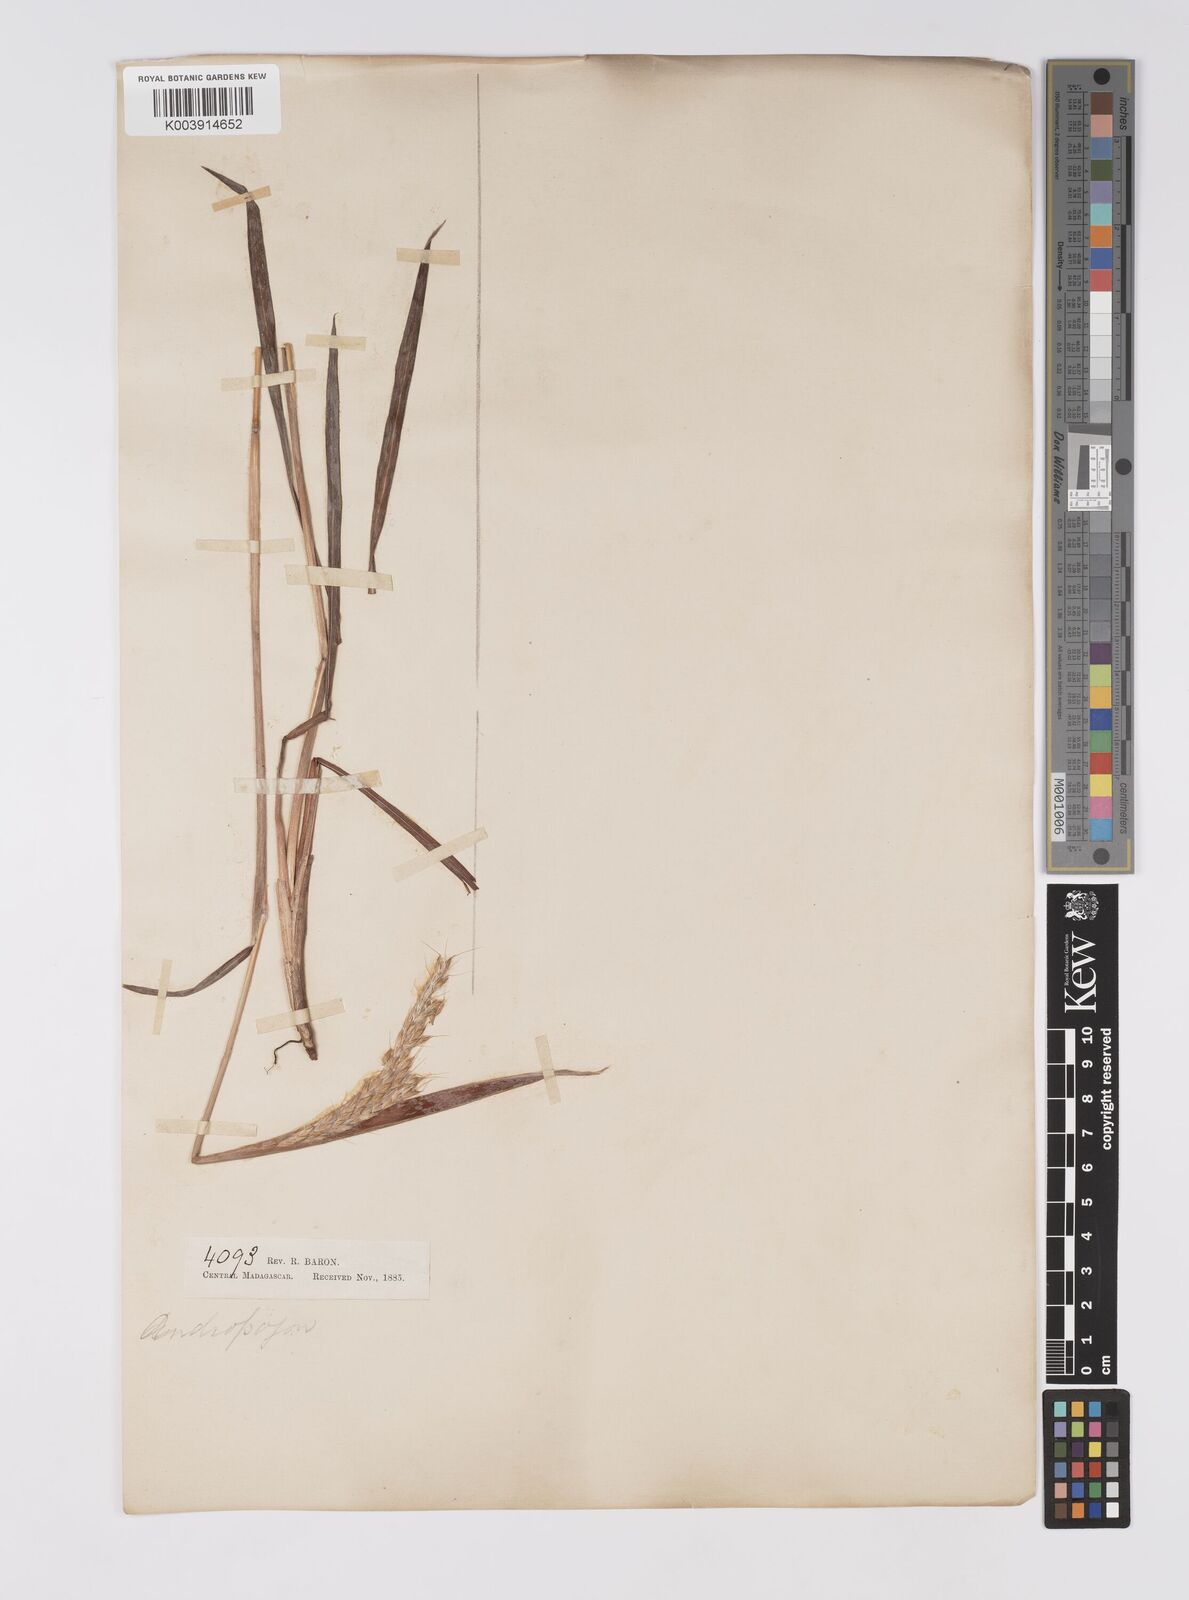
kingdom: Plantae
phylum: Tracheophyta
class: Liliopsida
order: Poales
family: Poaceae
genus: Eulalia
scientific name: Eulalia villosa
